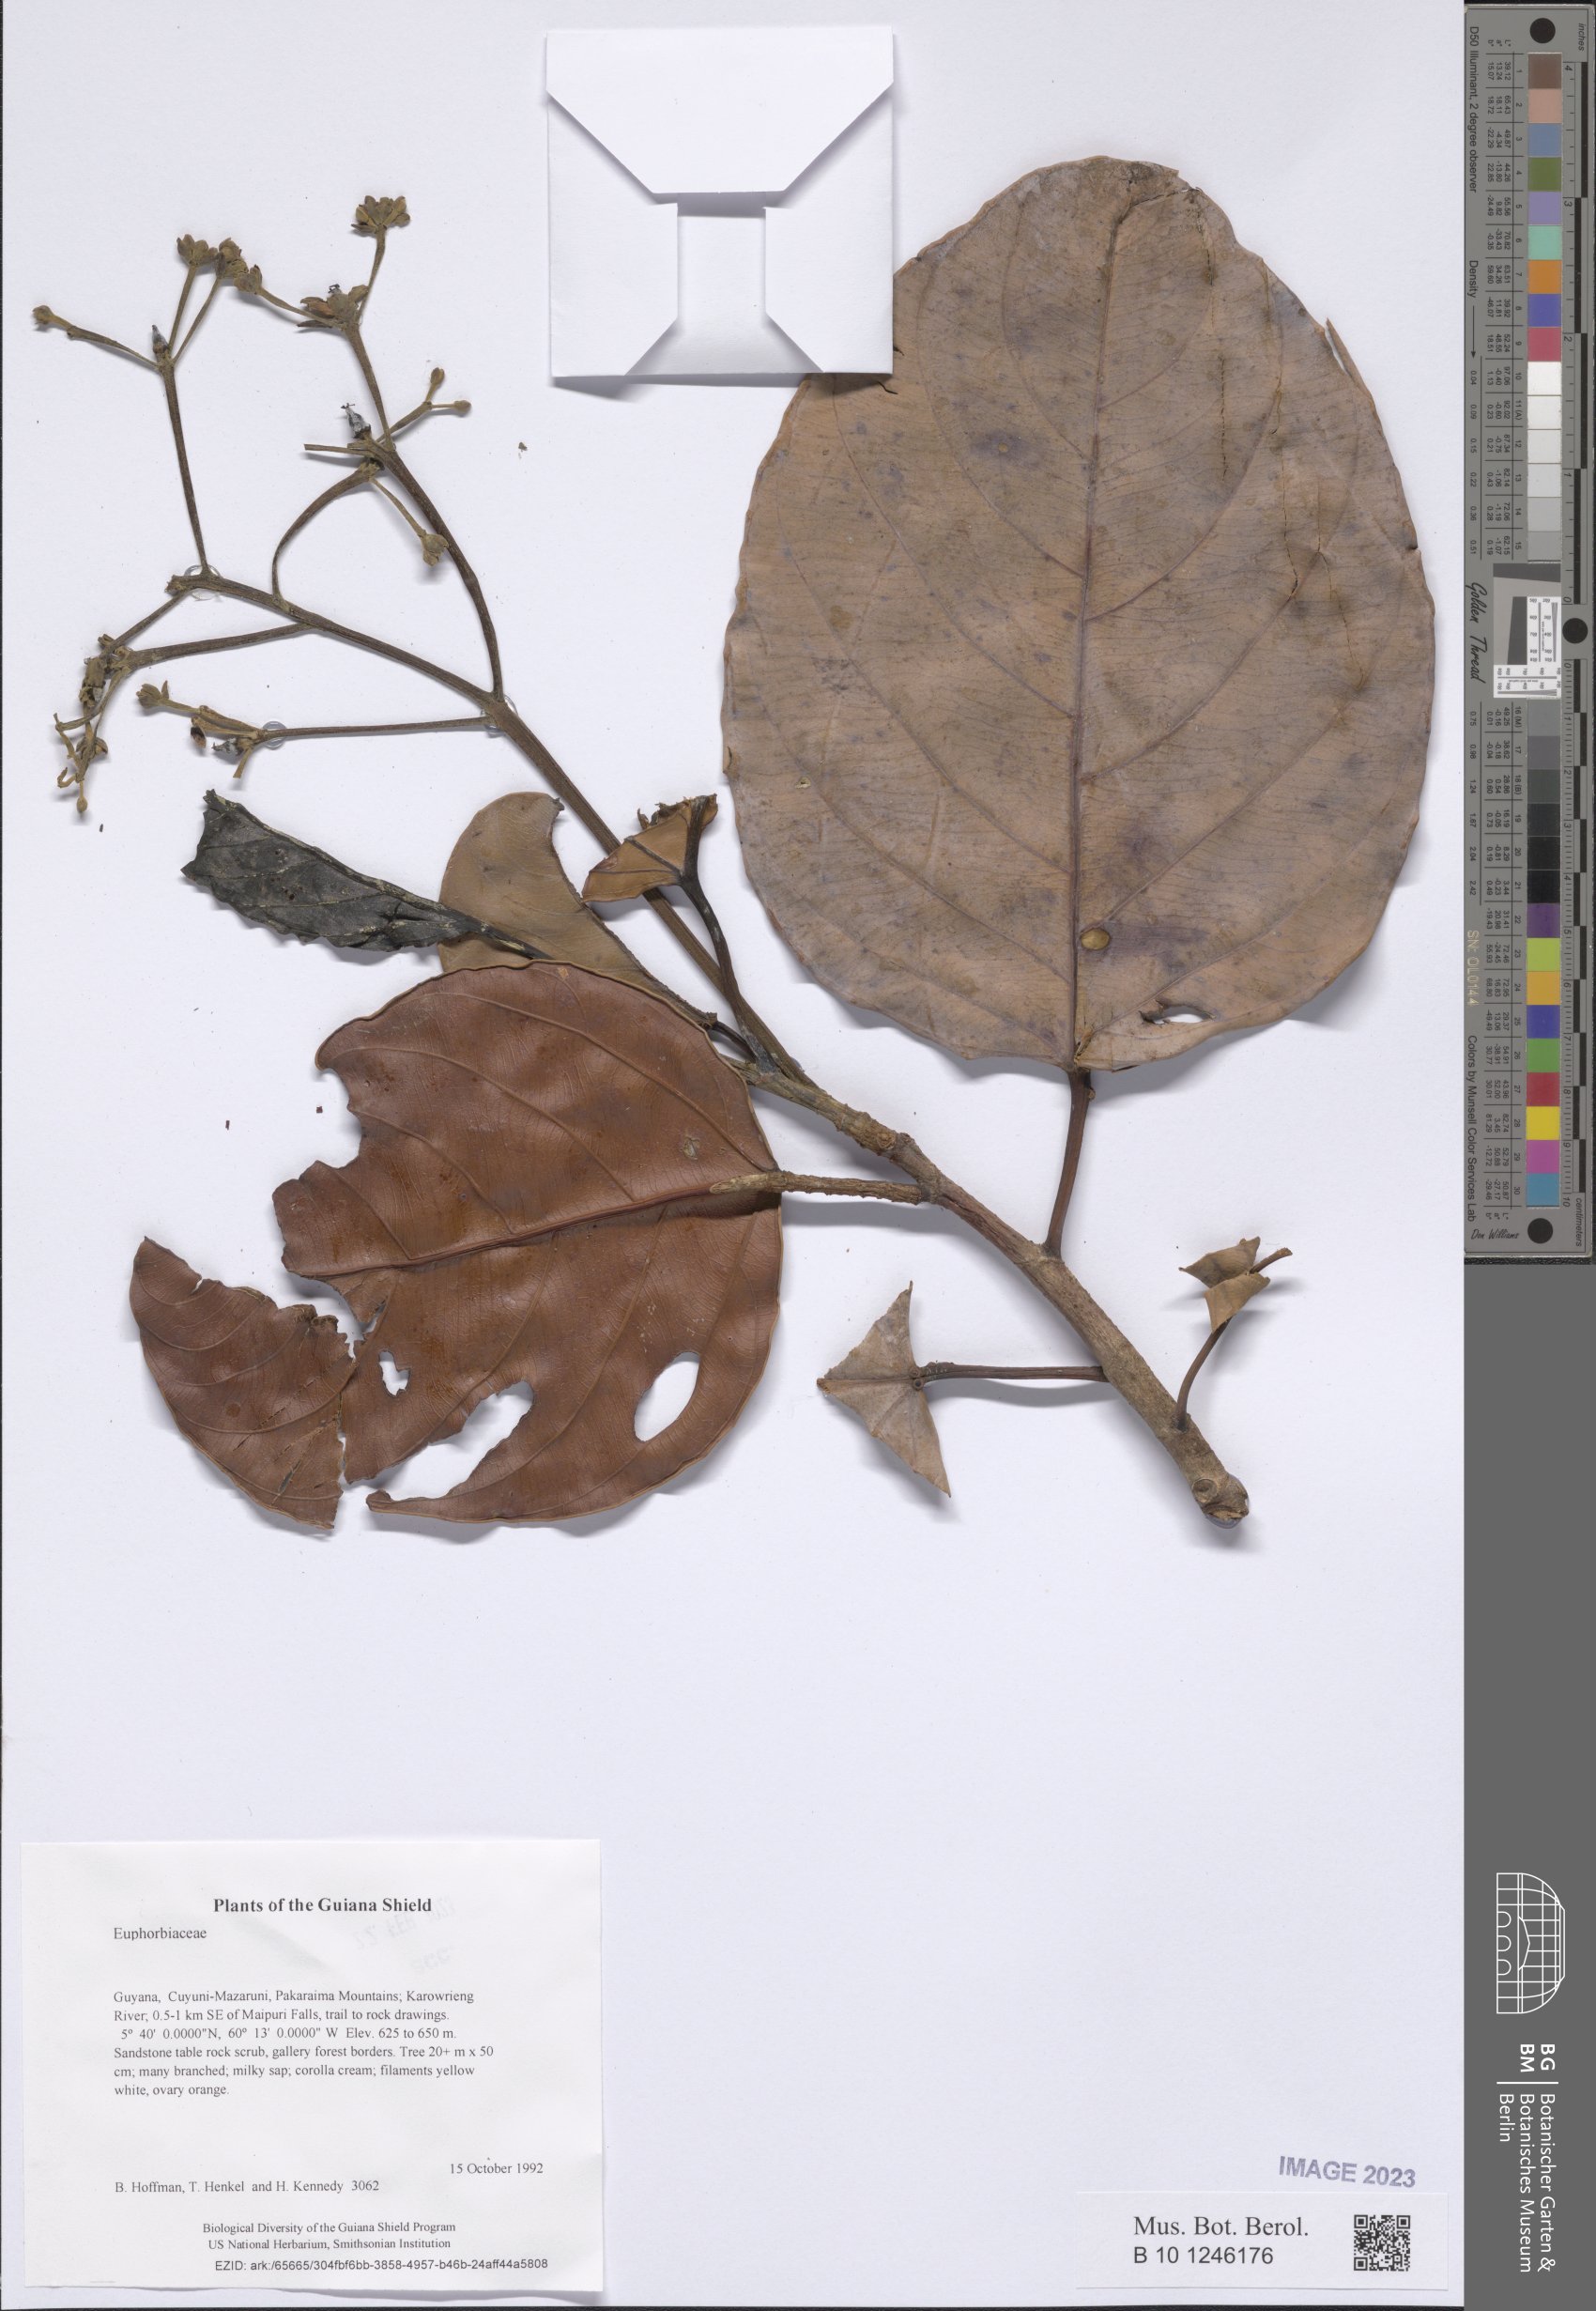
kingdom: Plantae
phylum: Tracheophyta
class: Magnoliopsida
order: Malpighiales
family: Euphorbiaceae
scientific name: Euphorbiaceae
